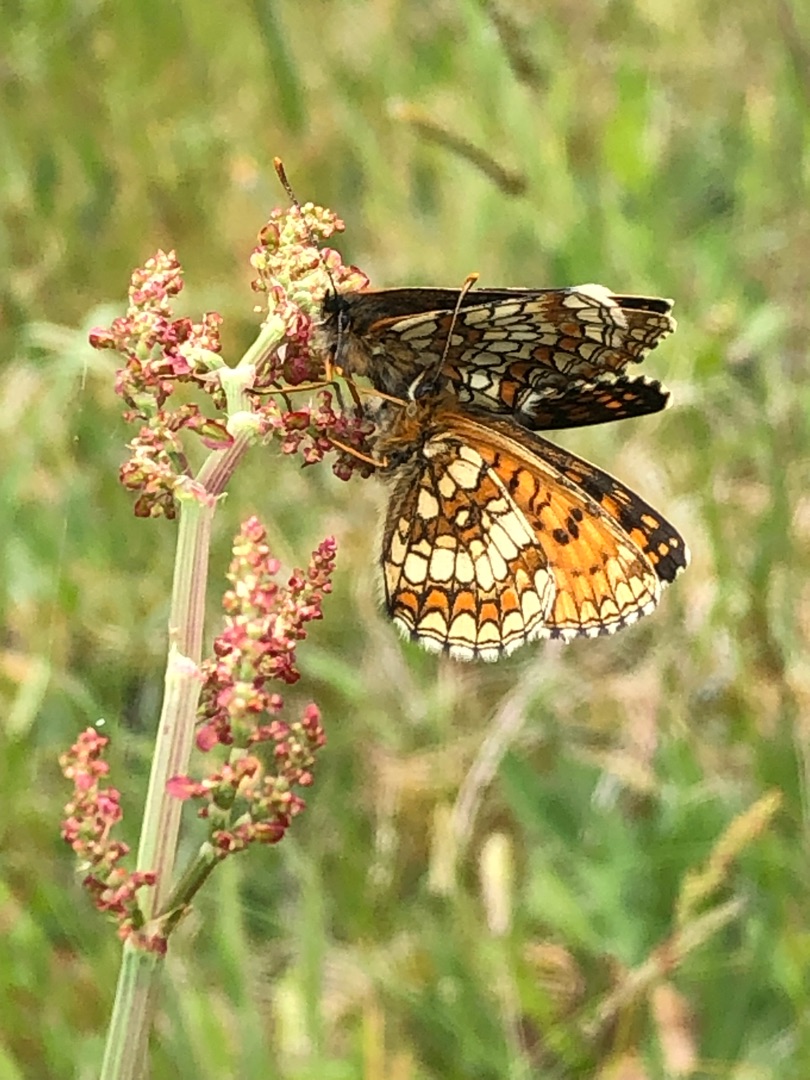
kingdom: Animalia
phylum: Arthropoda
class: Insecta
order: Lepidoptera
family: Nymphalidae
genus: Mellicta
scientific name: Mellicta athalia
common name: Brun pletvinge
